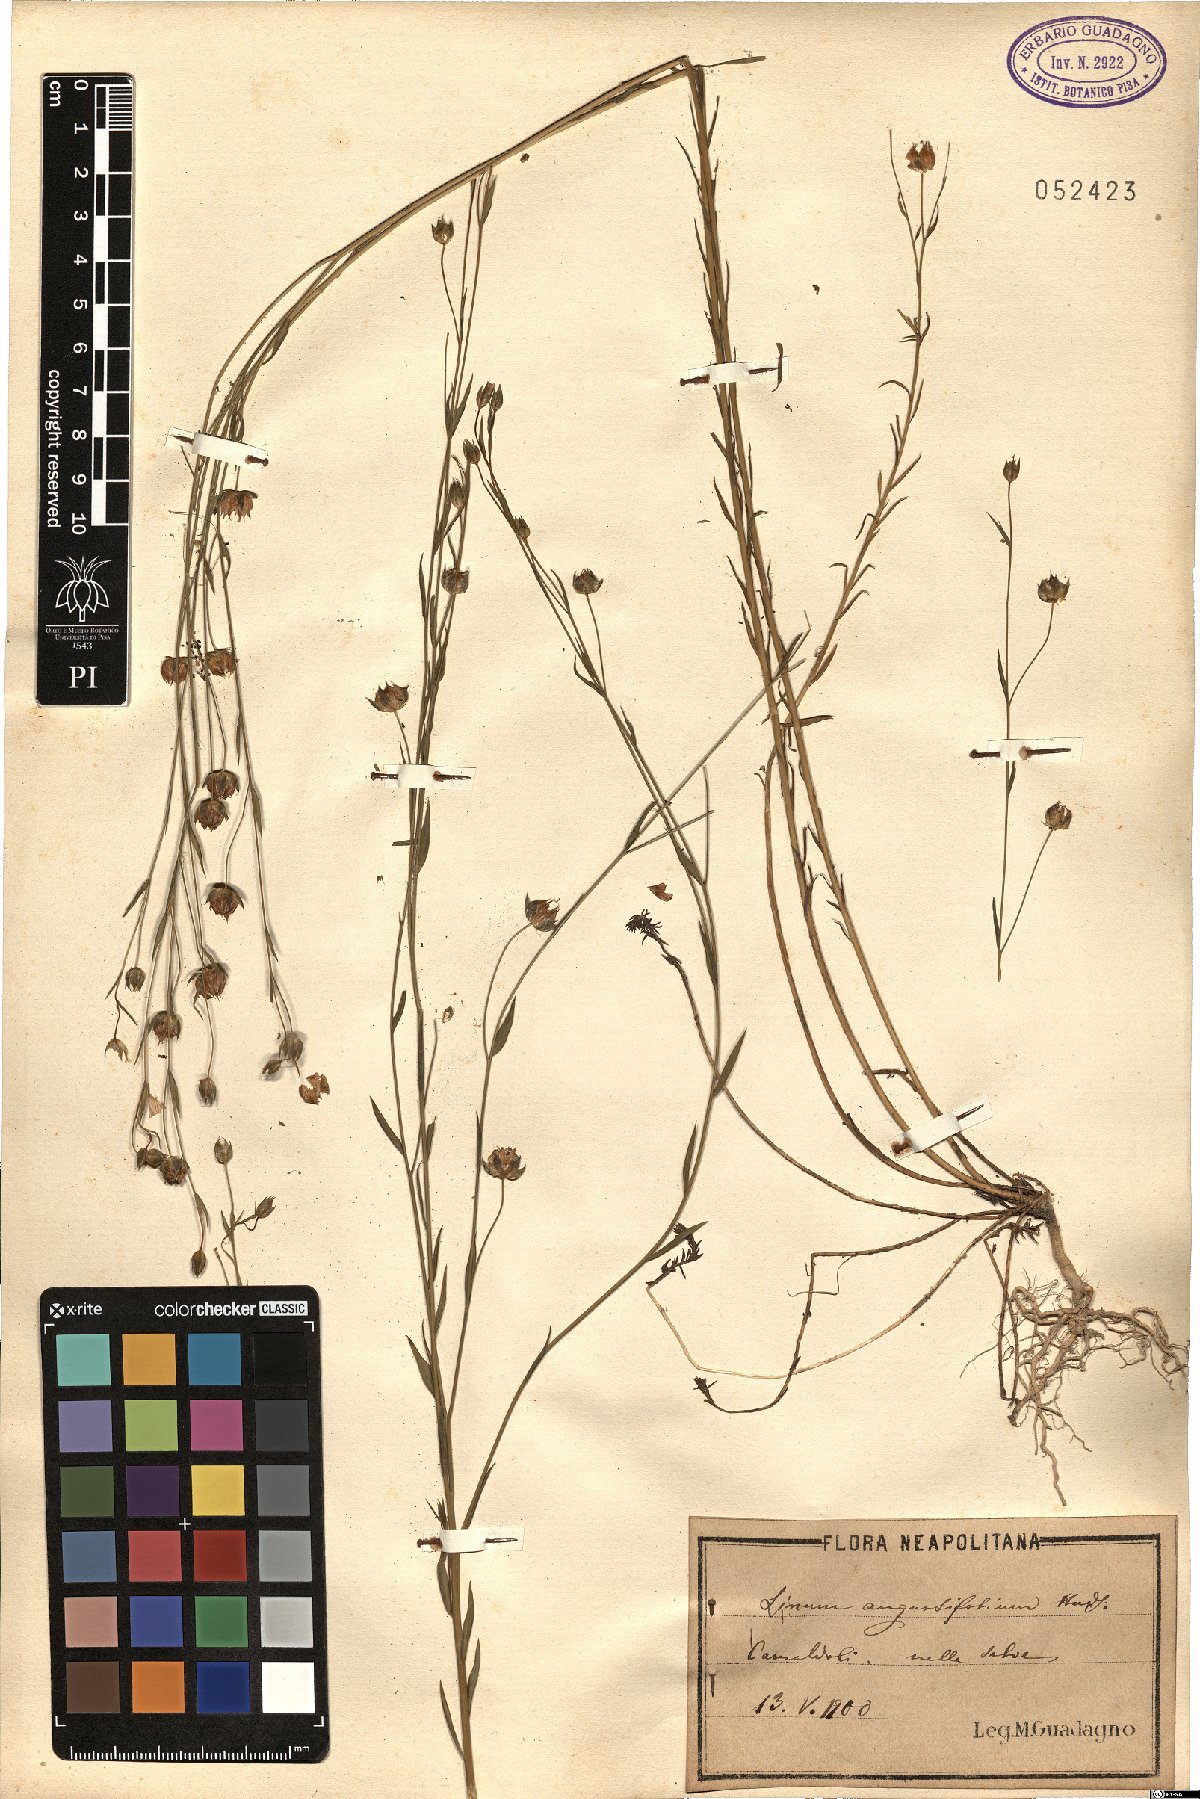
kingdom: Plantae
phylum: Tracheophyta
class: Magnoliopsida
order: Malpighiales
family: Linaceae
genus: Linum
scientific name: Linum bienne
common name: Pale flax
